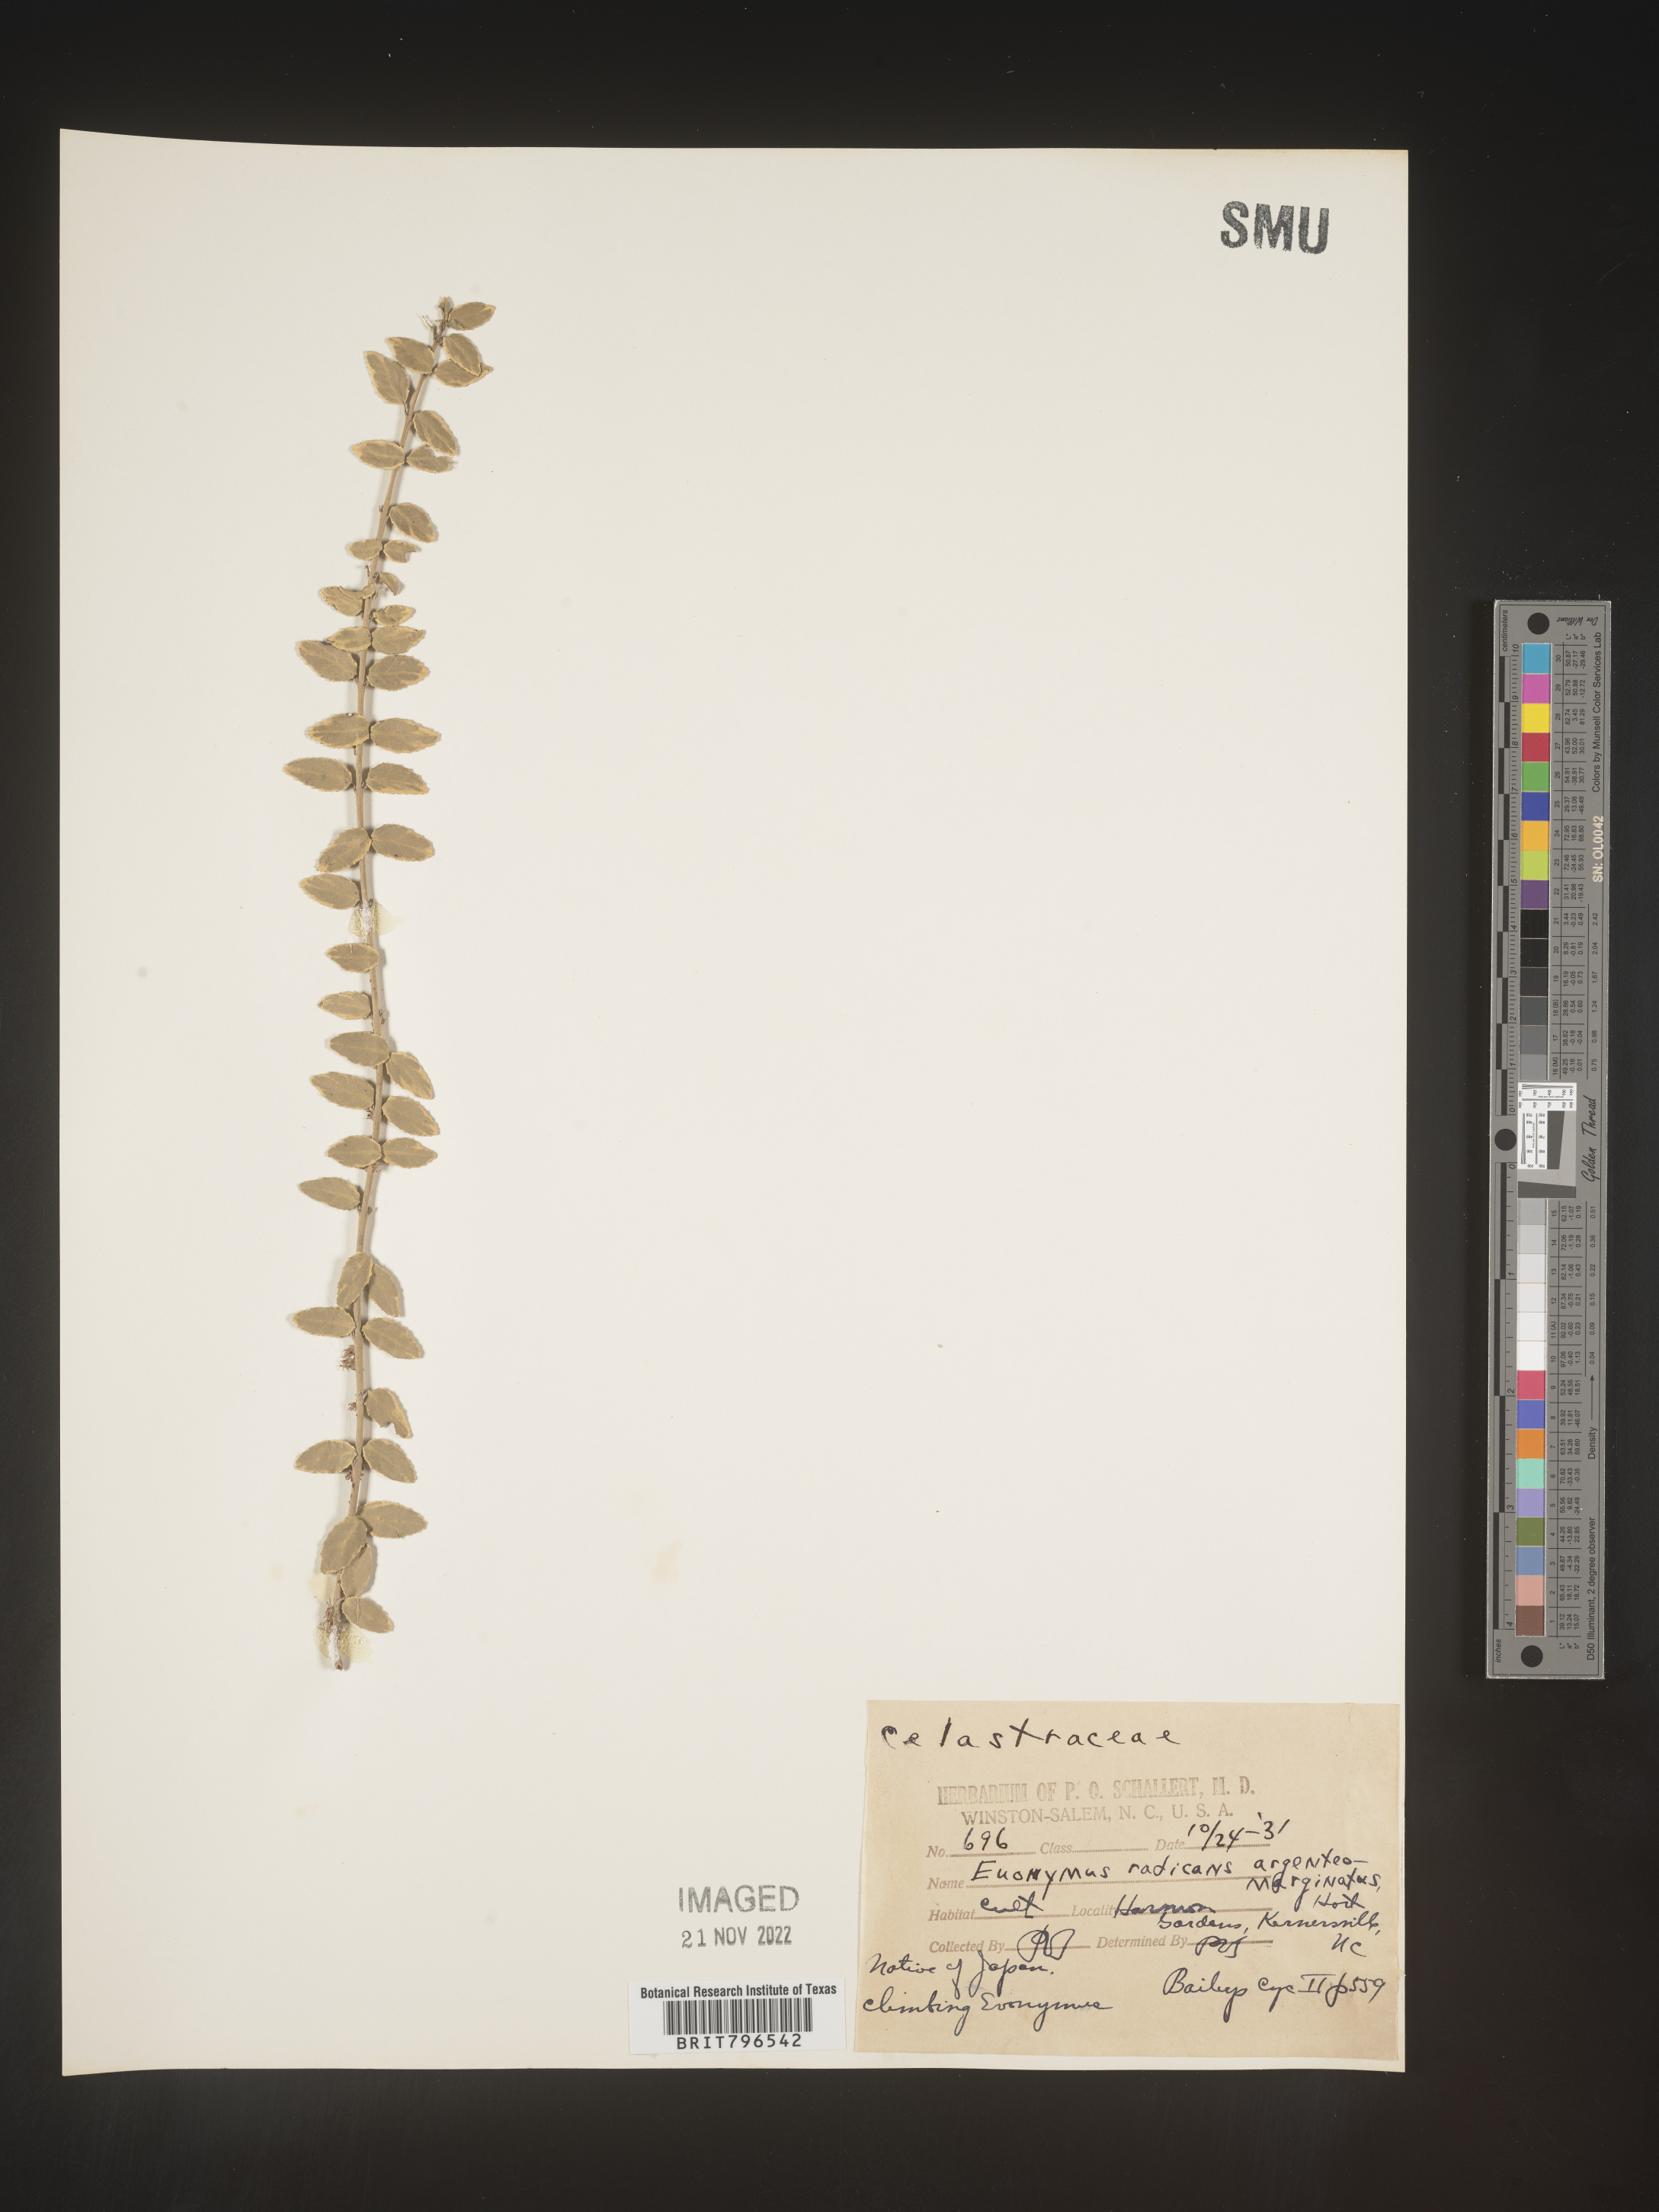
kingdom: Plantae
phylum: Tracheophyta
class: Magnoliopsida
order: Celastrales
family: Celastraceae
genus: Euonymus
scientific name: Euonymus
